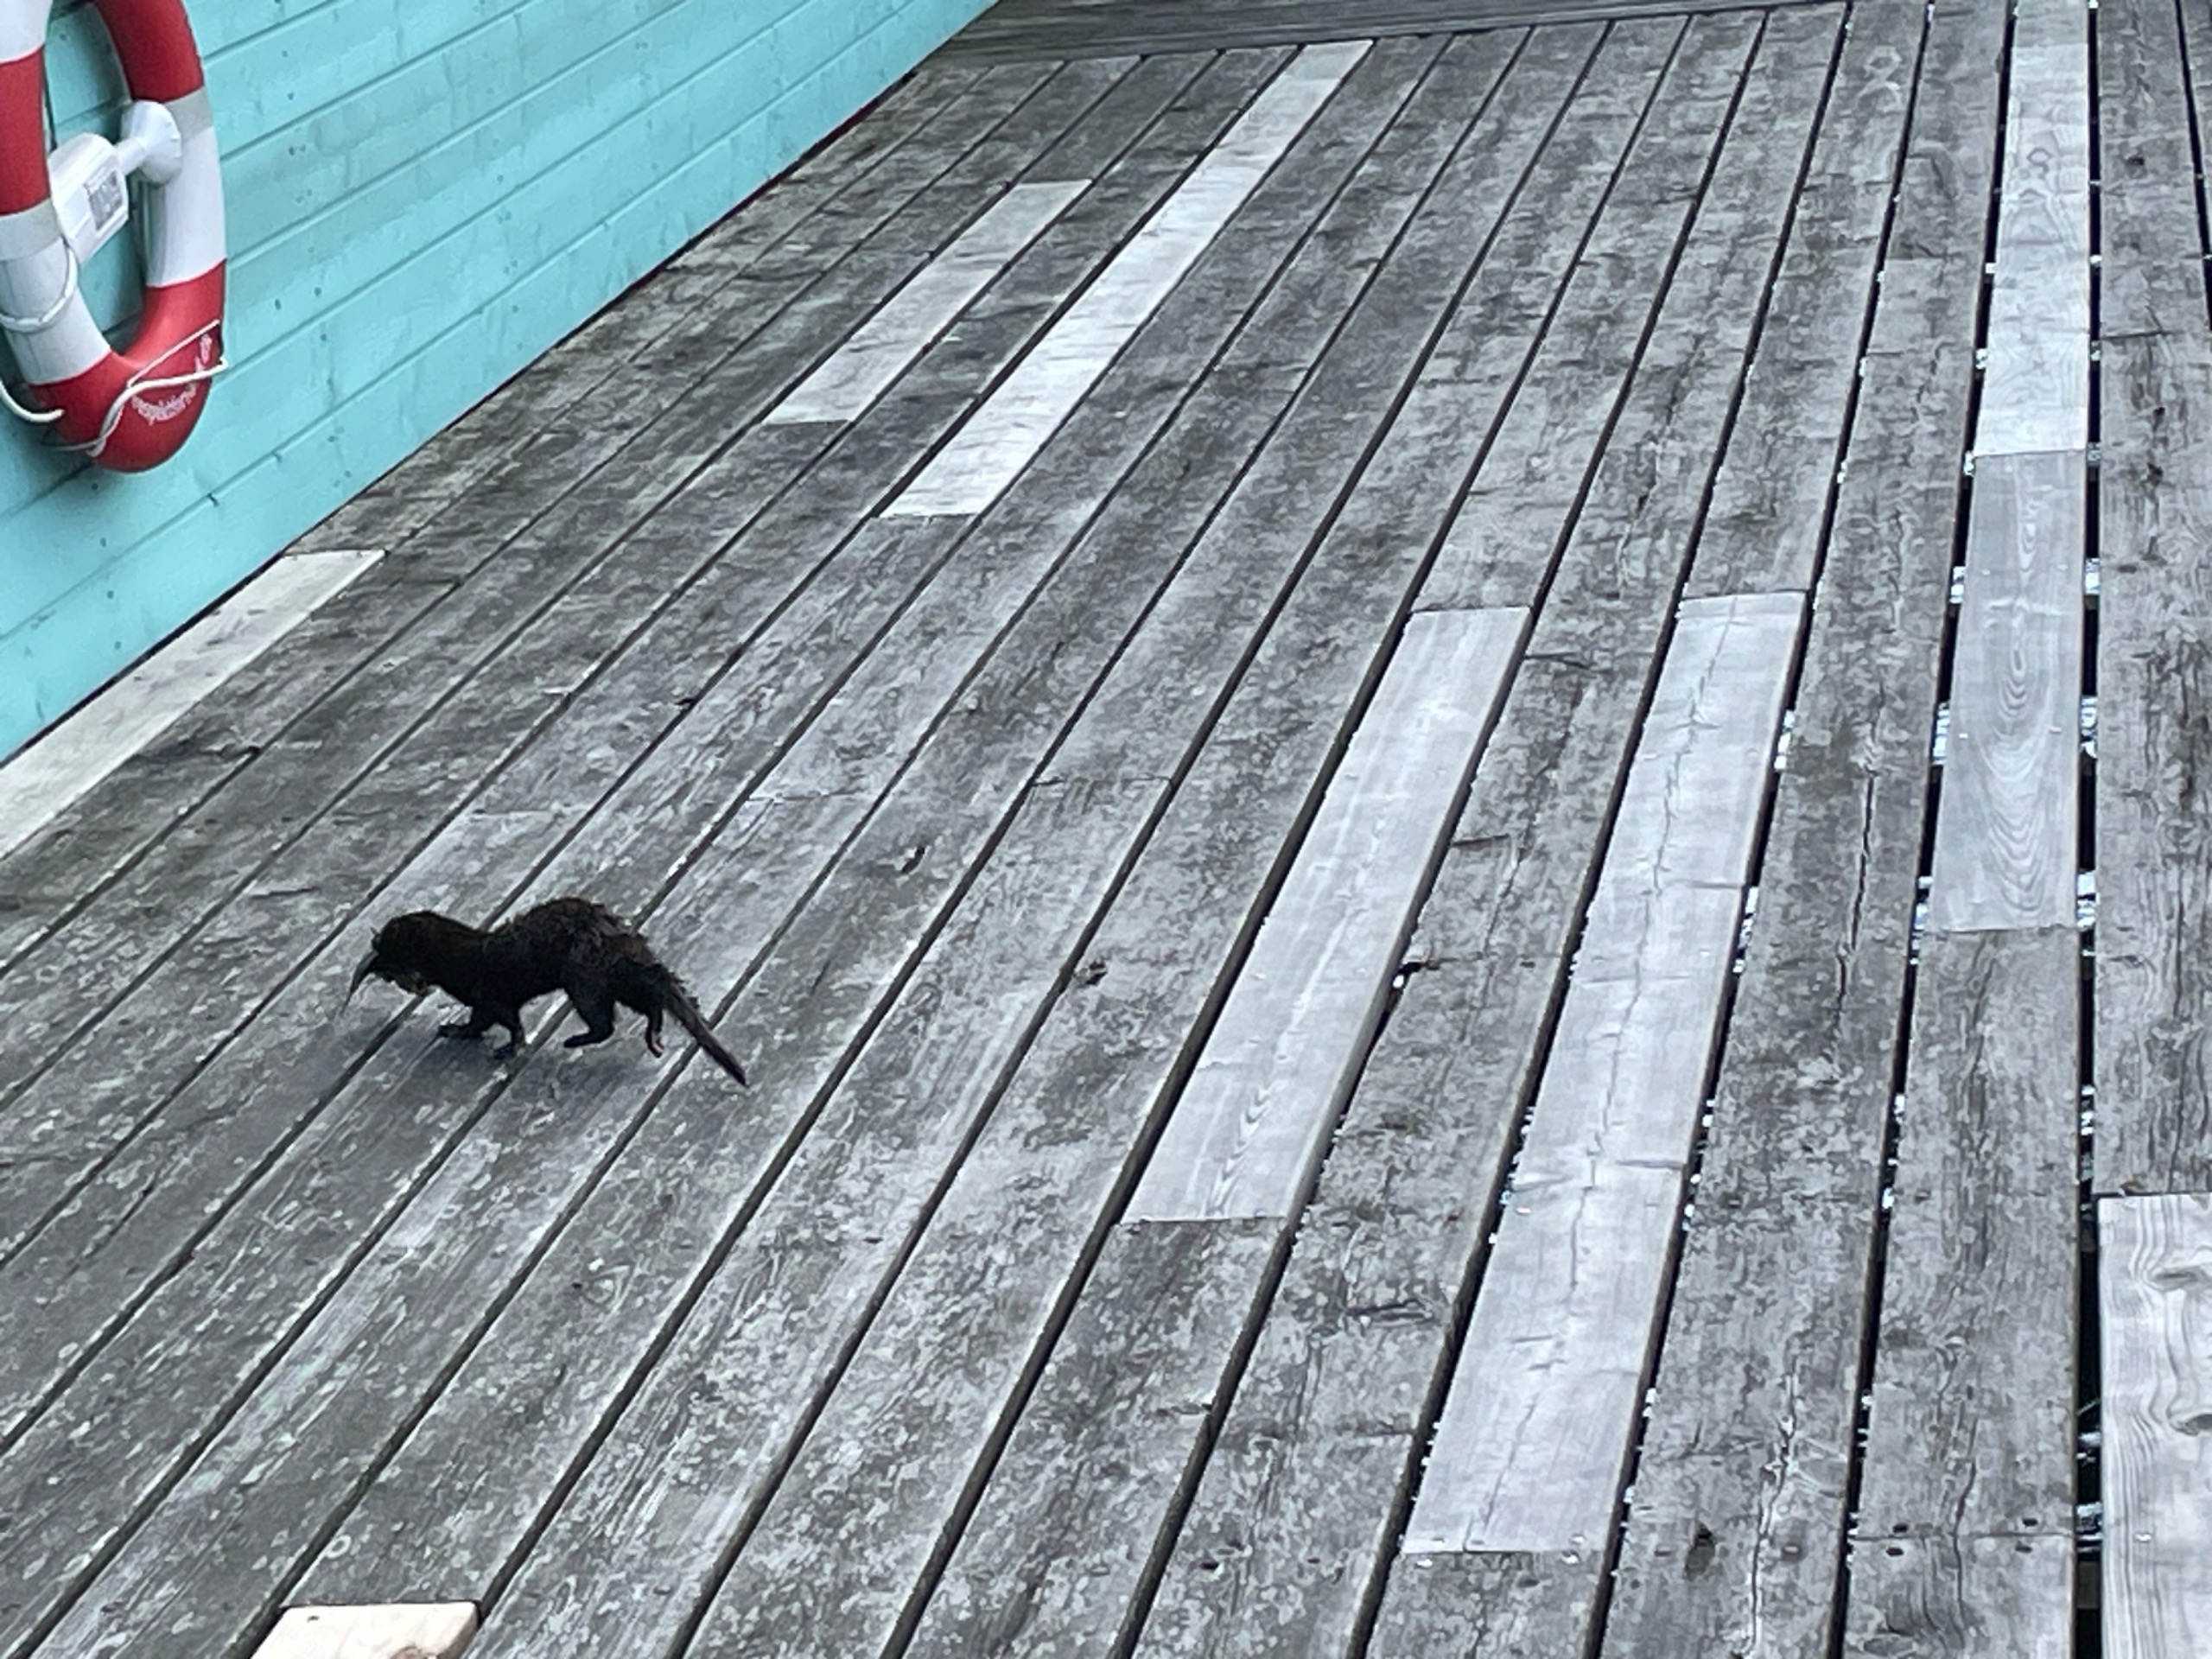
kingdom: Animalia
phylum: Chordata
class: Mammalia
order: Carnivora
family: Mustelidae
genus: Mustela
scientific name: Mustela vison
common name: Mink
